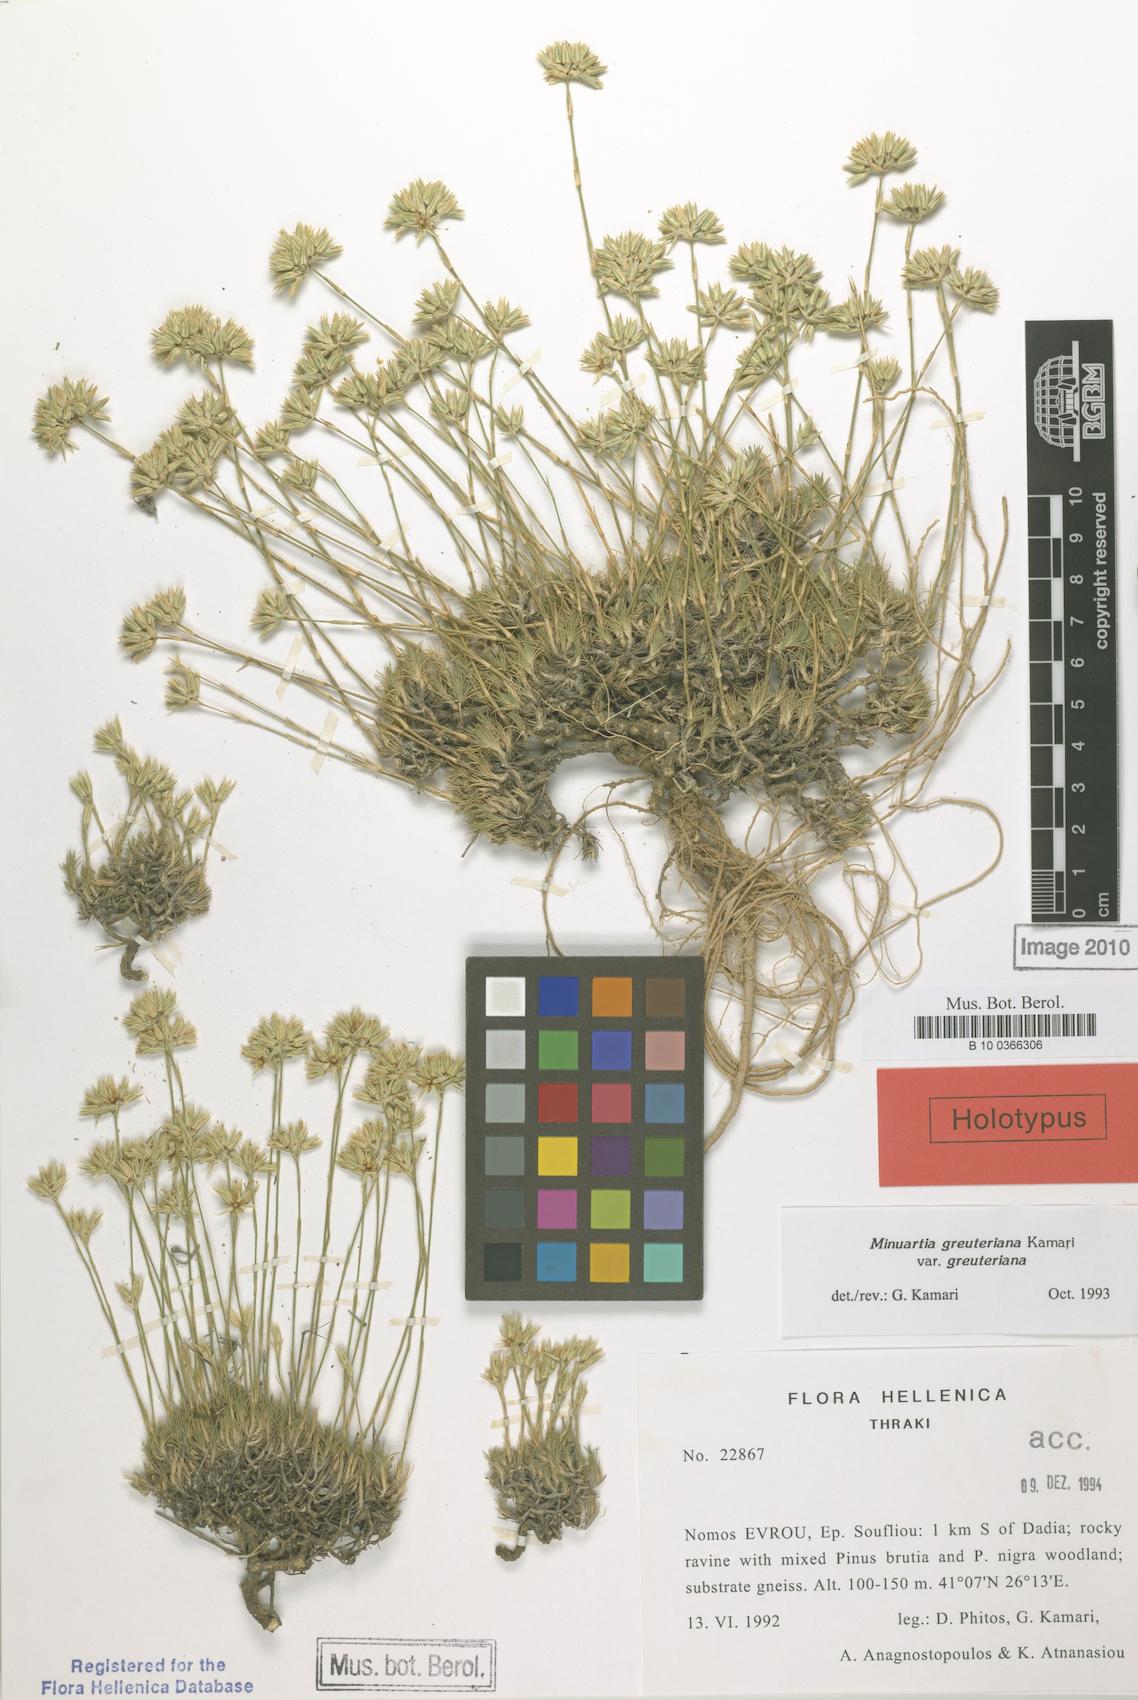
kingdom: Plantae
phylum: Tracheophyta
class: Magnoliopsida
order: Caryophyllales
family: Caryophyllaceae
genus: Minuartia
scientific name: Minuartia greuteriana
